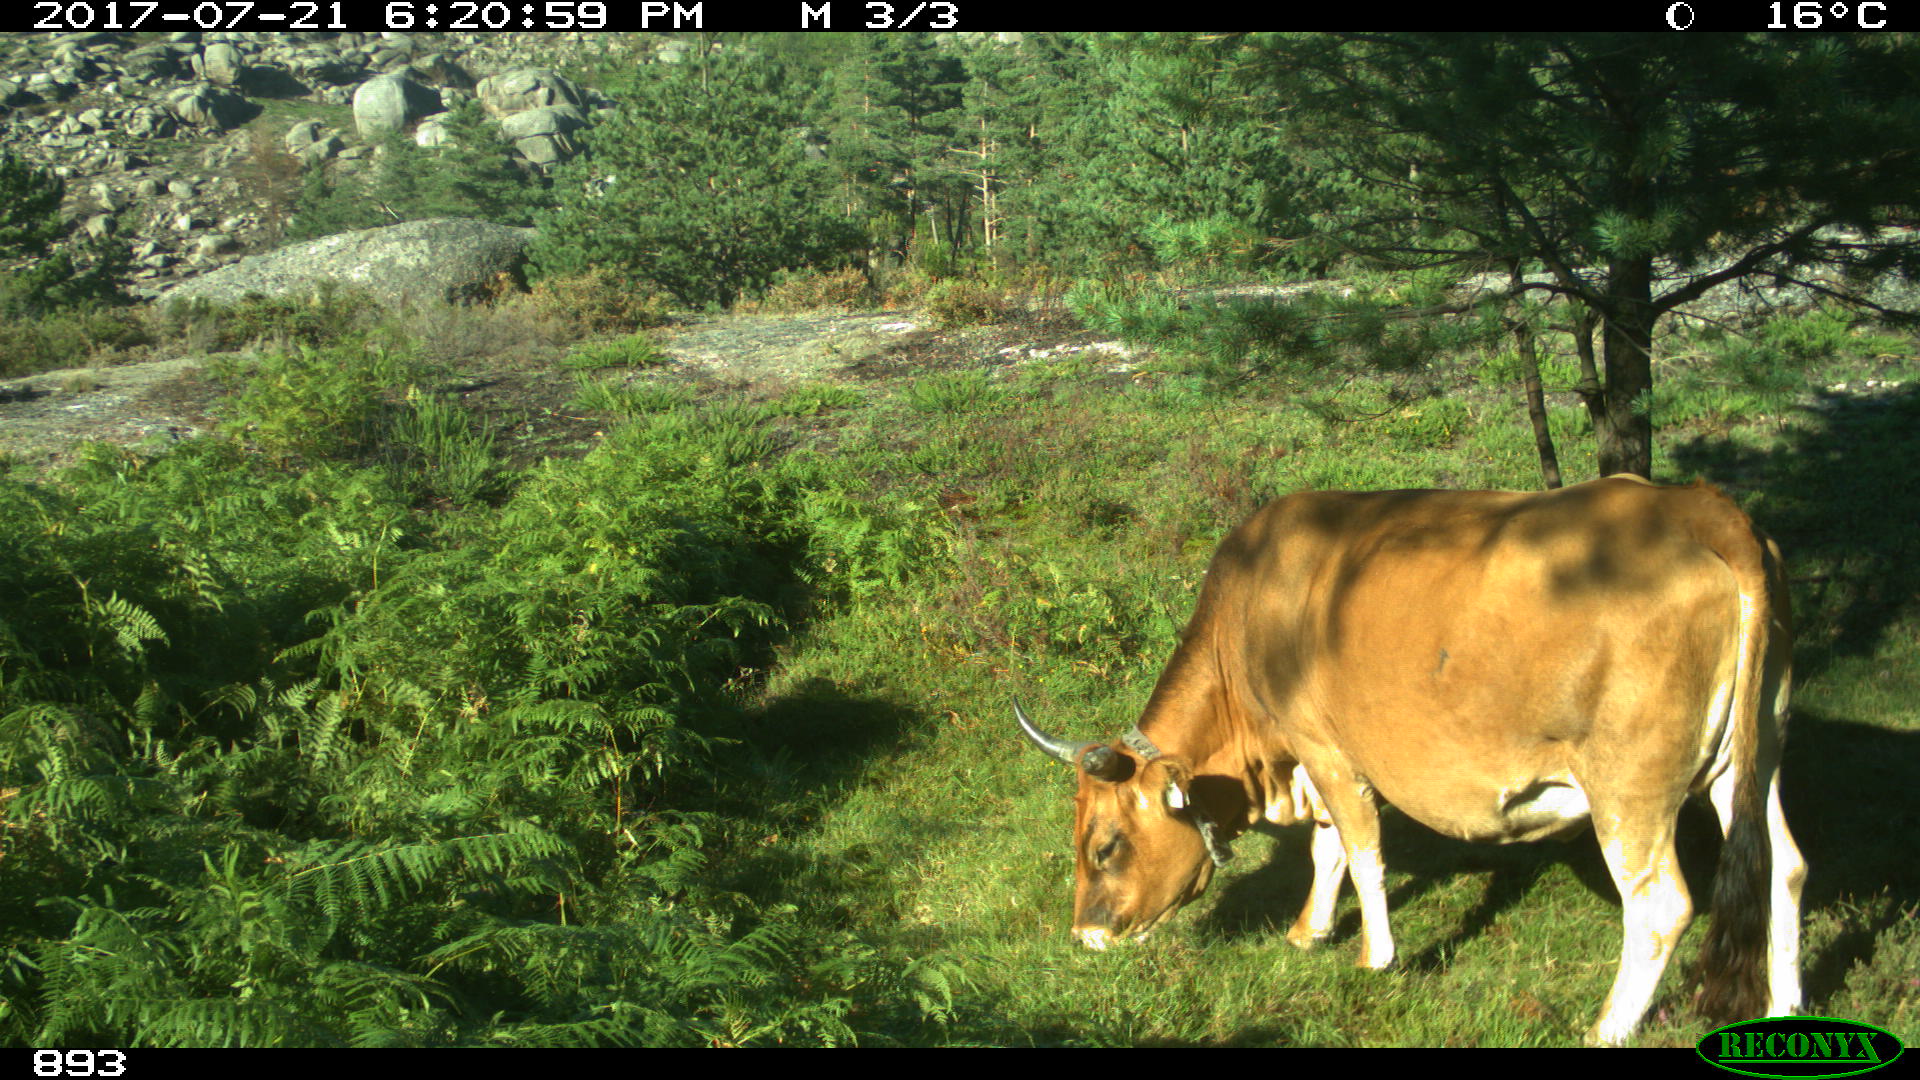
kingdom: Animalia
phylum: Chordata
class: Mammalia
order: Artiodactyla
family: Bovidae
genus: Bos
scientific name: Bos taurus
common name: Domesticated cattle
